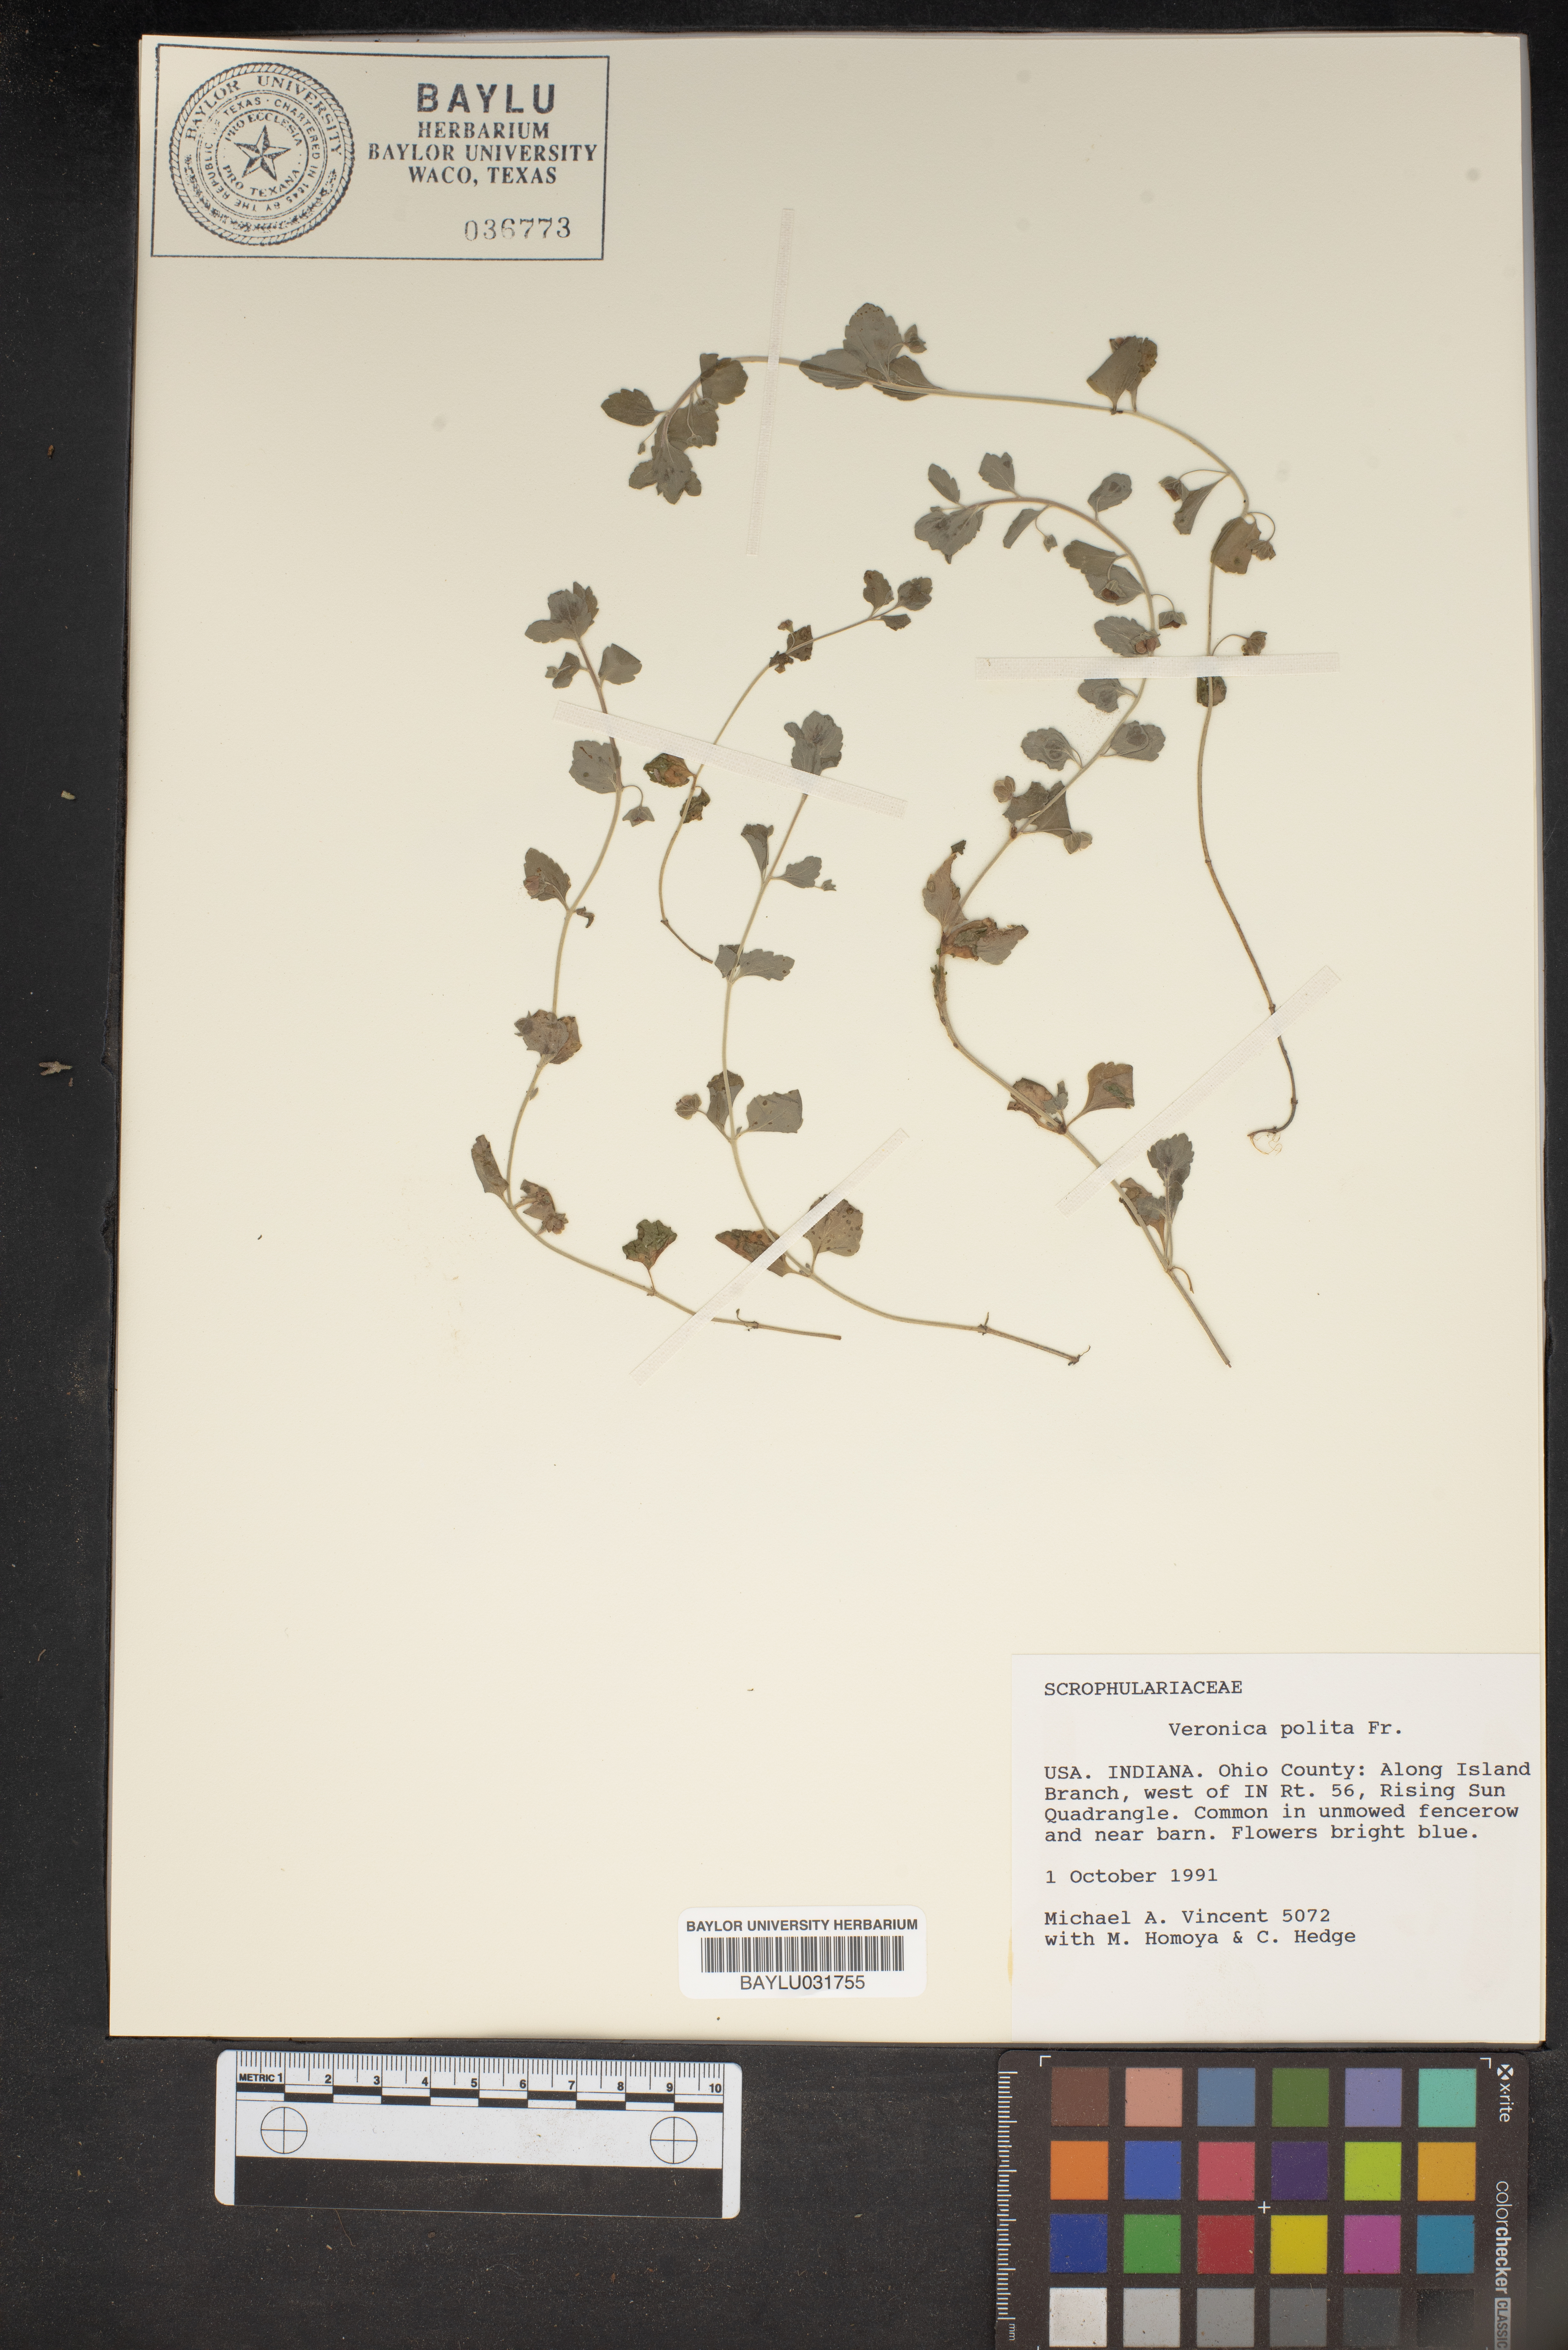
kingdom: Plantae
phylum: Tracheophyta
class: Magnoliopsida
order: Lamiales
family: Plantaginaceae
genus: Veronica
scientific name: Veronica polita
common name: Grey field-speedwell
